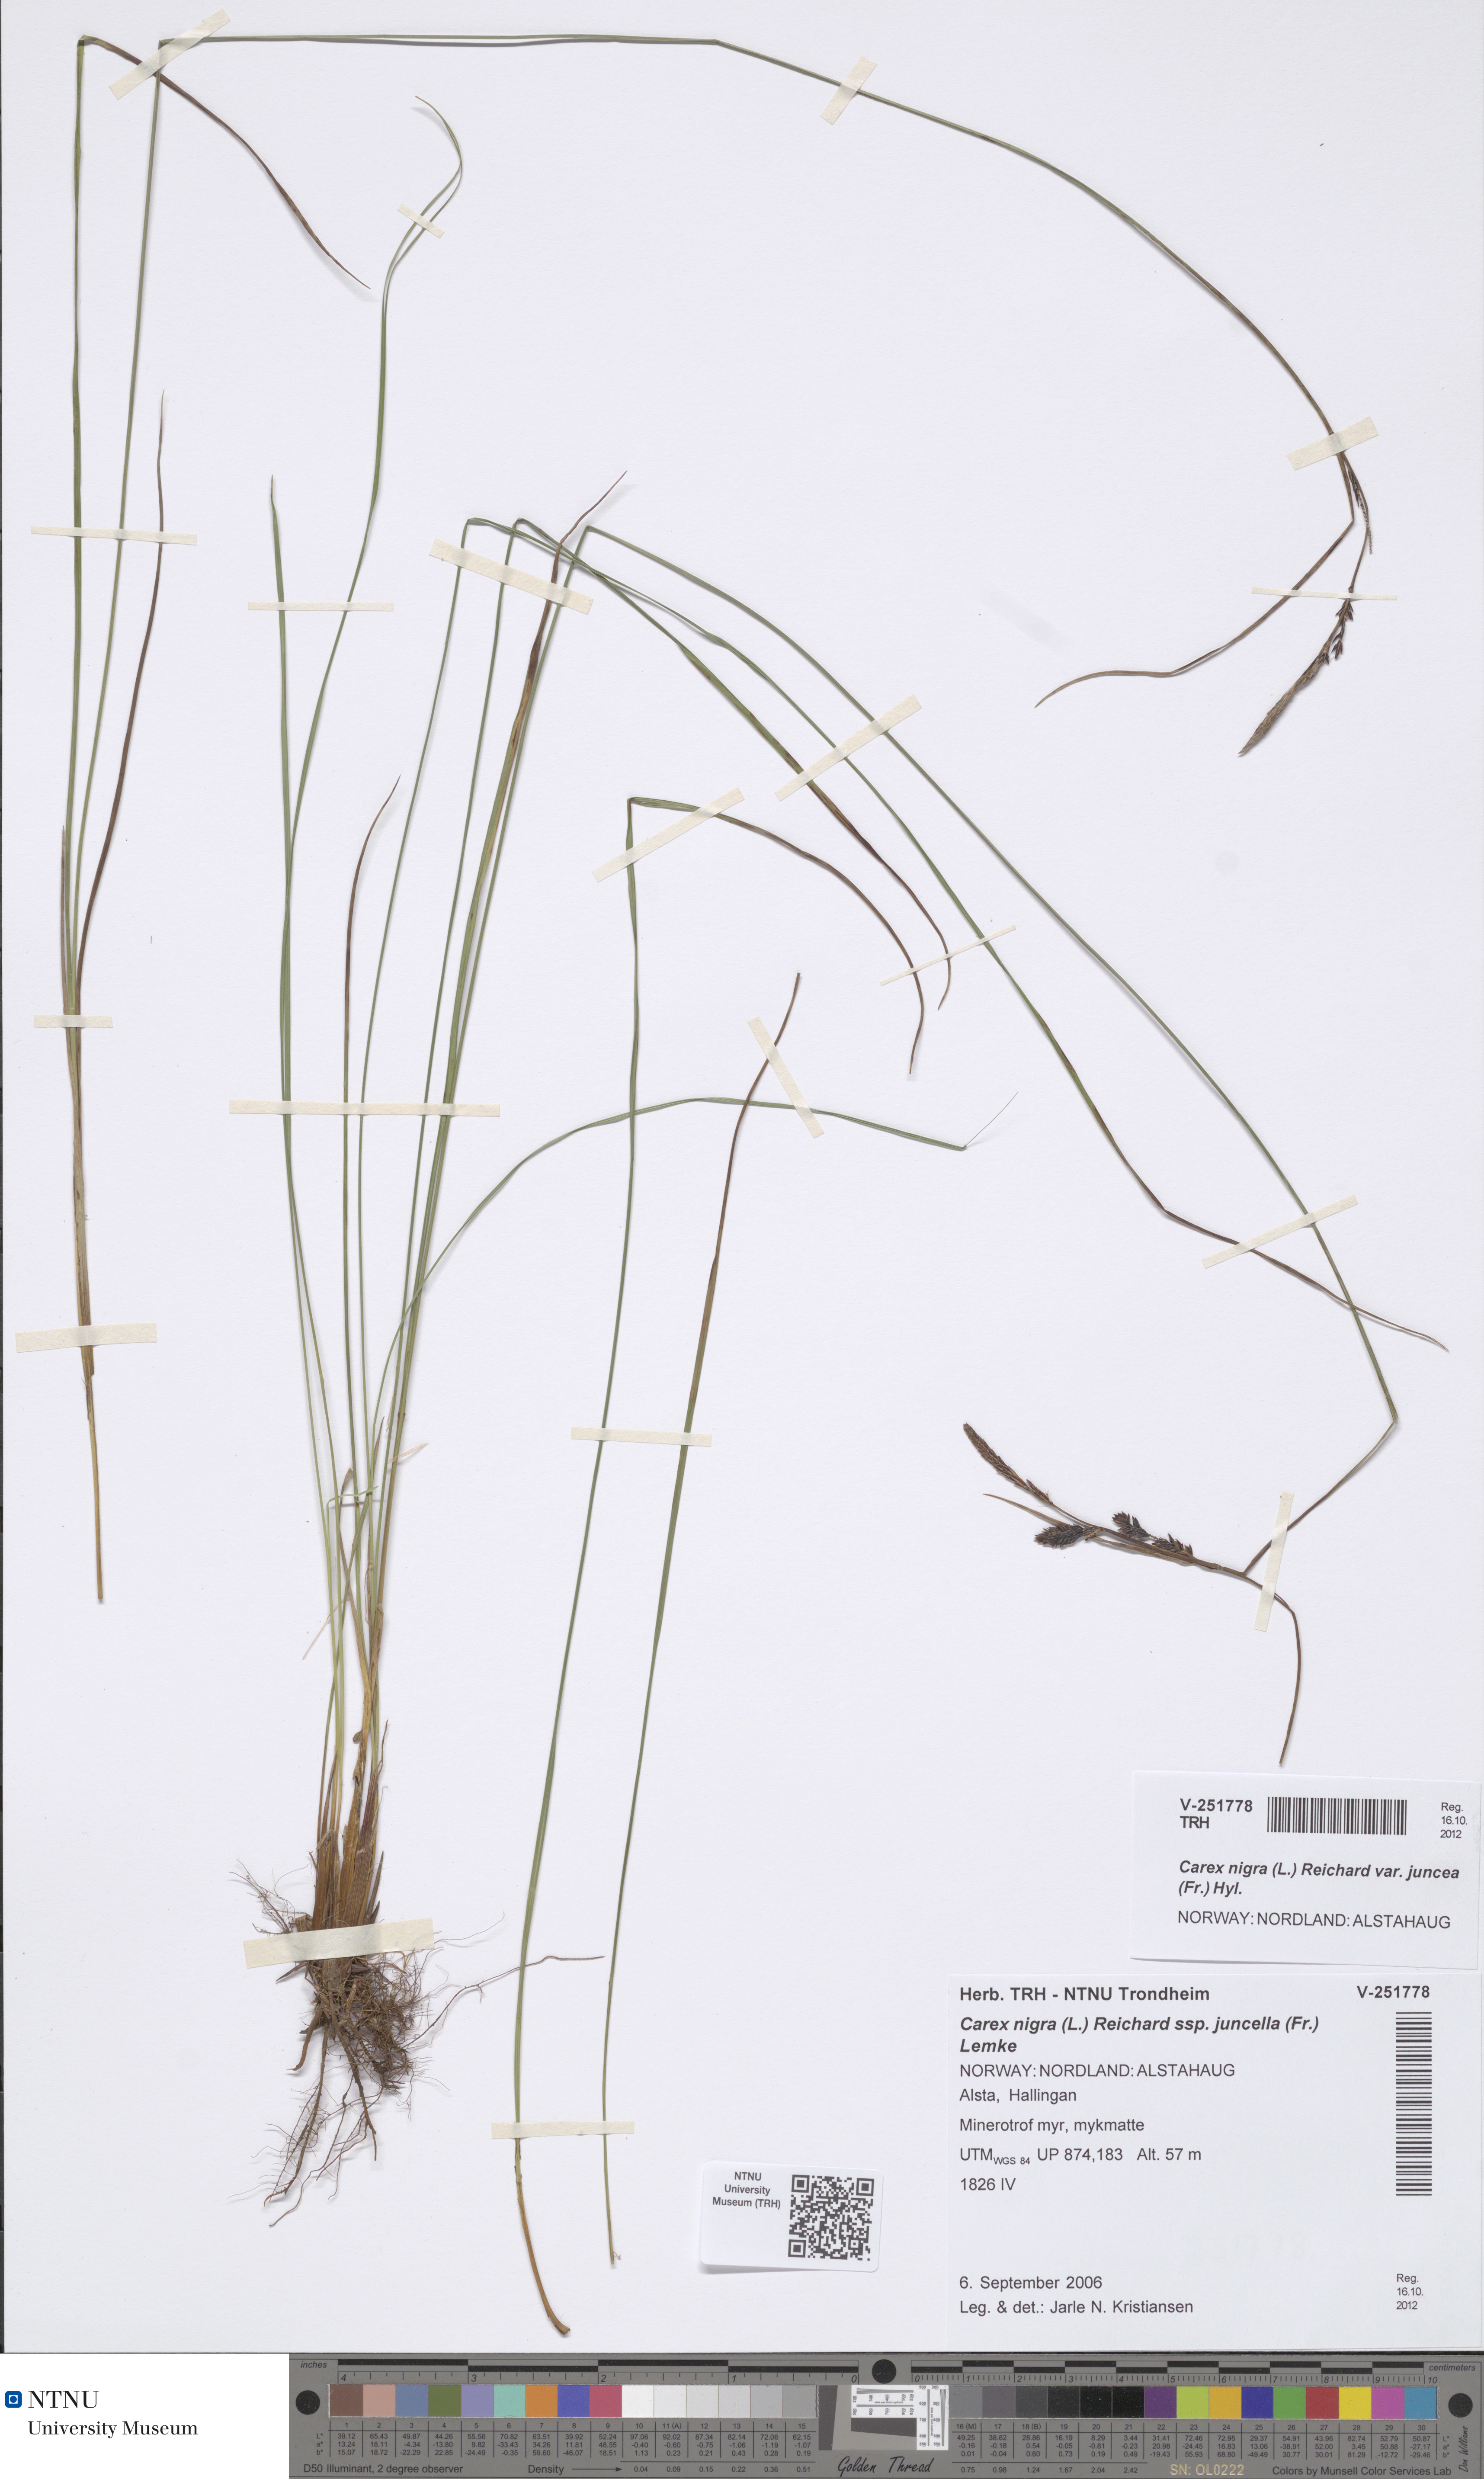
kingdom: Plantae
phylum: Tracheophyta
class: Liliopsida
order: Poales
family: Cyperaceae
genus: Carex
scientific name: Carex nigra
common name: Common sedge
